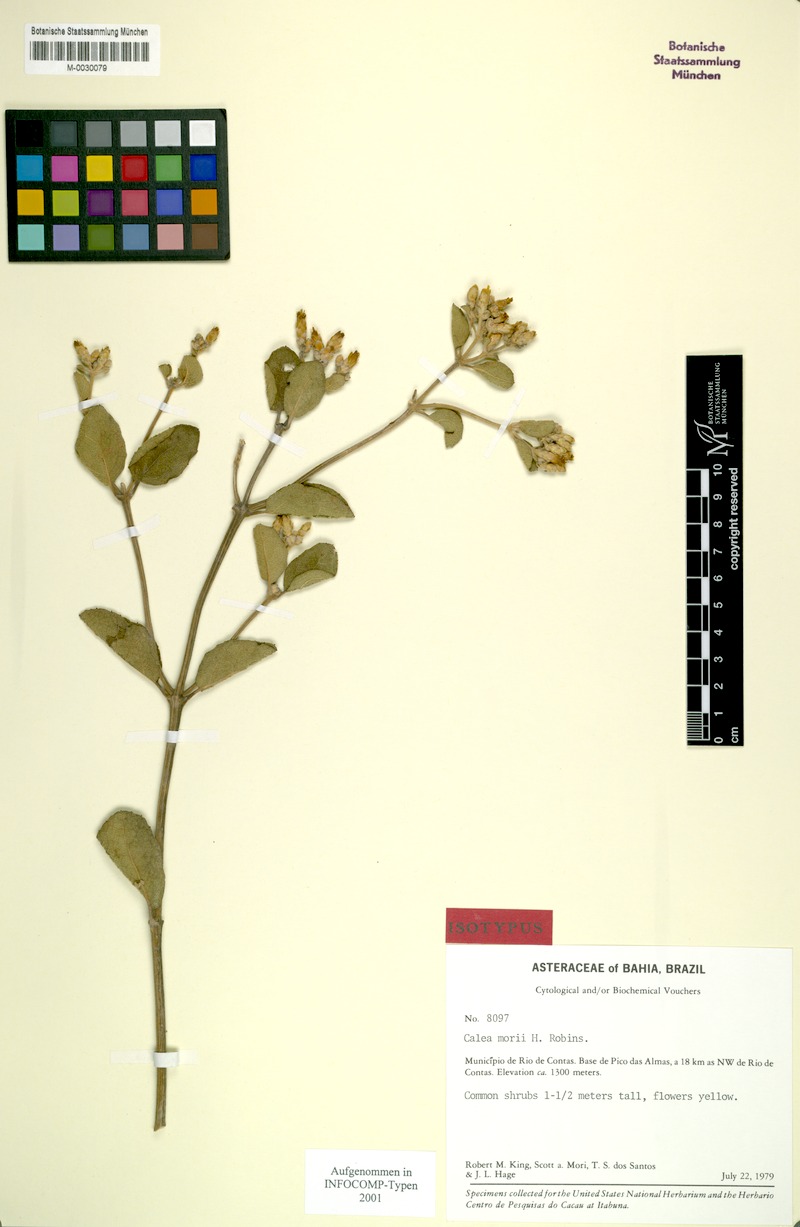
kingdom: Plantae
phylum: Tracheophyta
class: Magnoliopsida
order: Asterales
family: Asteraceae
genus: Calea
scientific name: Calea morii
